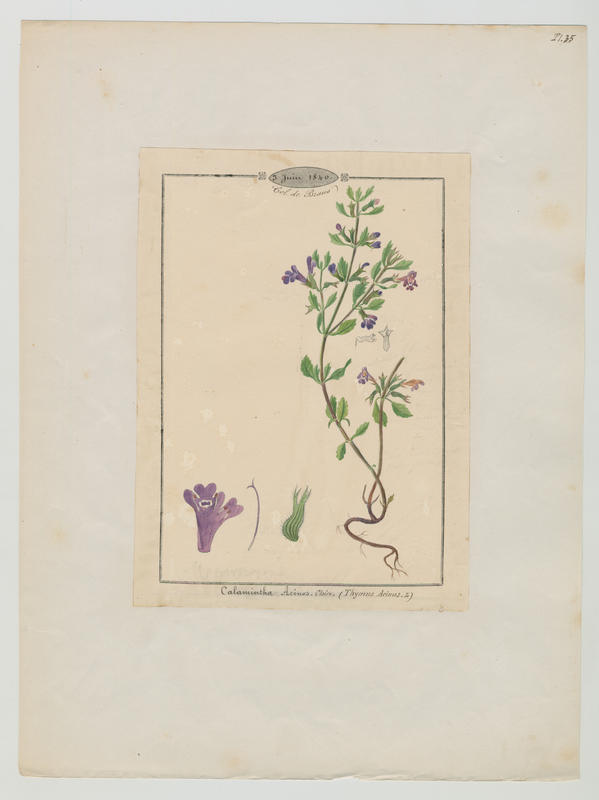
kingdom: Plantae
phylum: Tracheophyta
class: Magnoliopsida
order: Lamiales
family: Lamiaceae
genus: Clinopodium
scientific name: Clinopodium acinos
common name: Basil thyme
